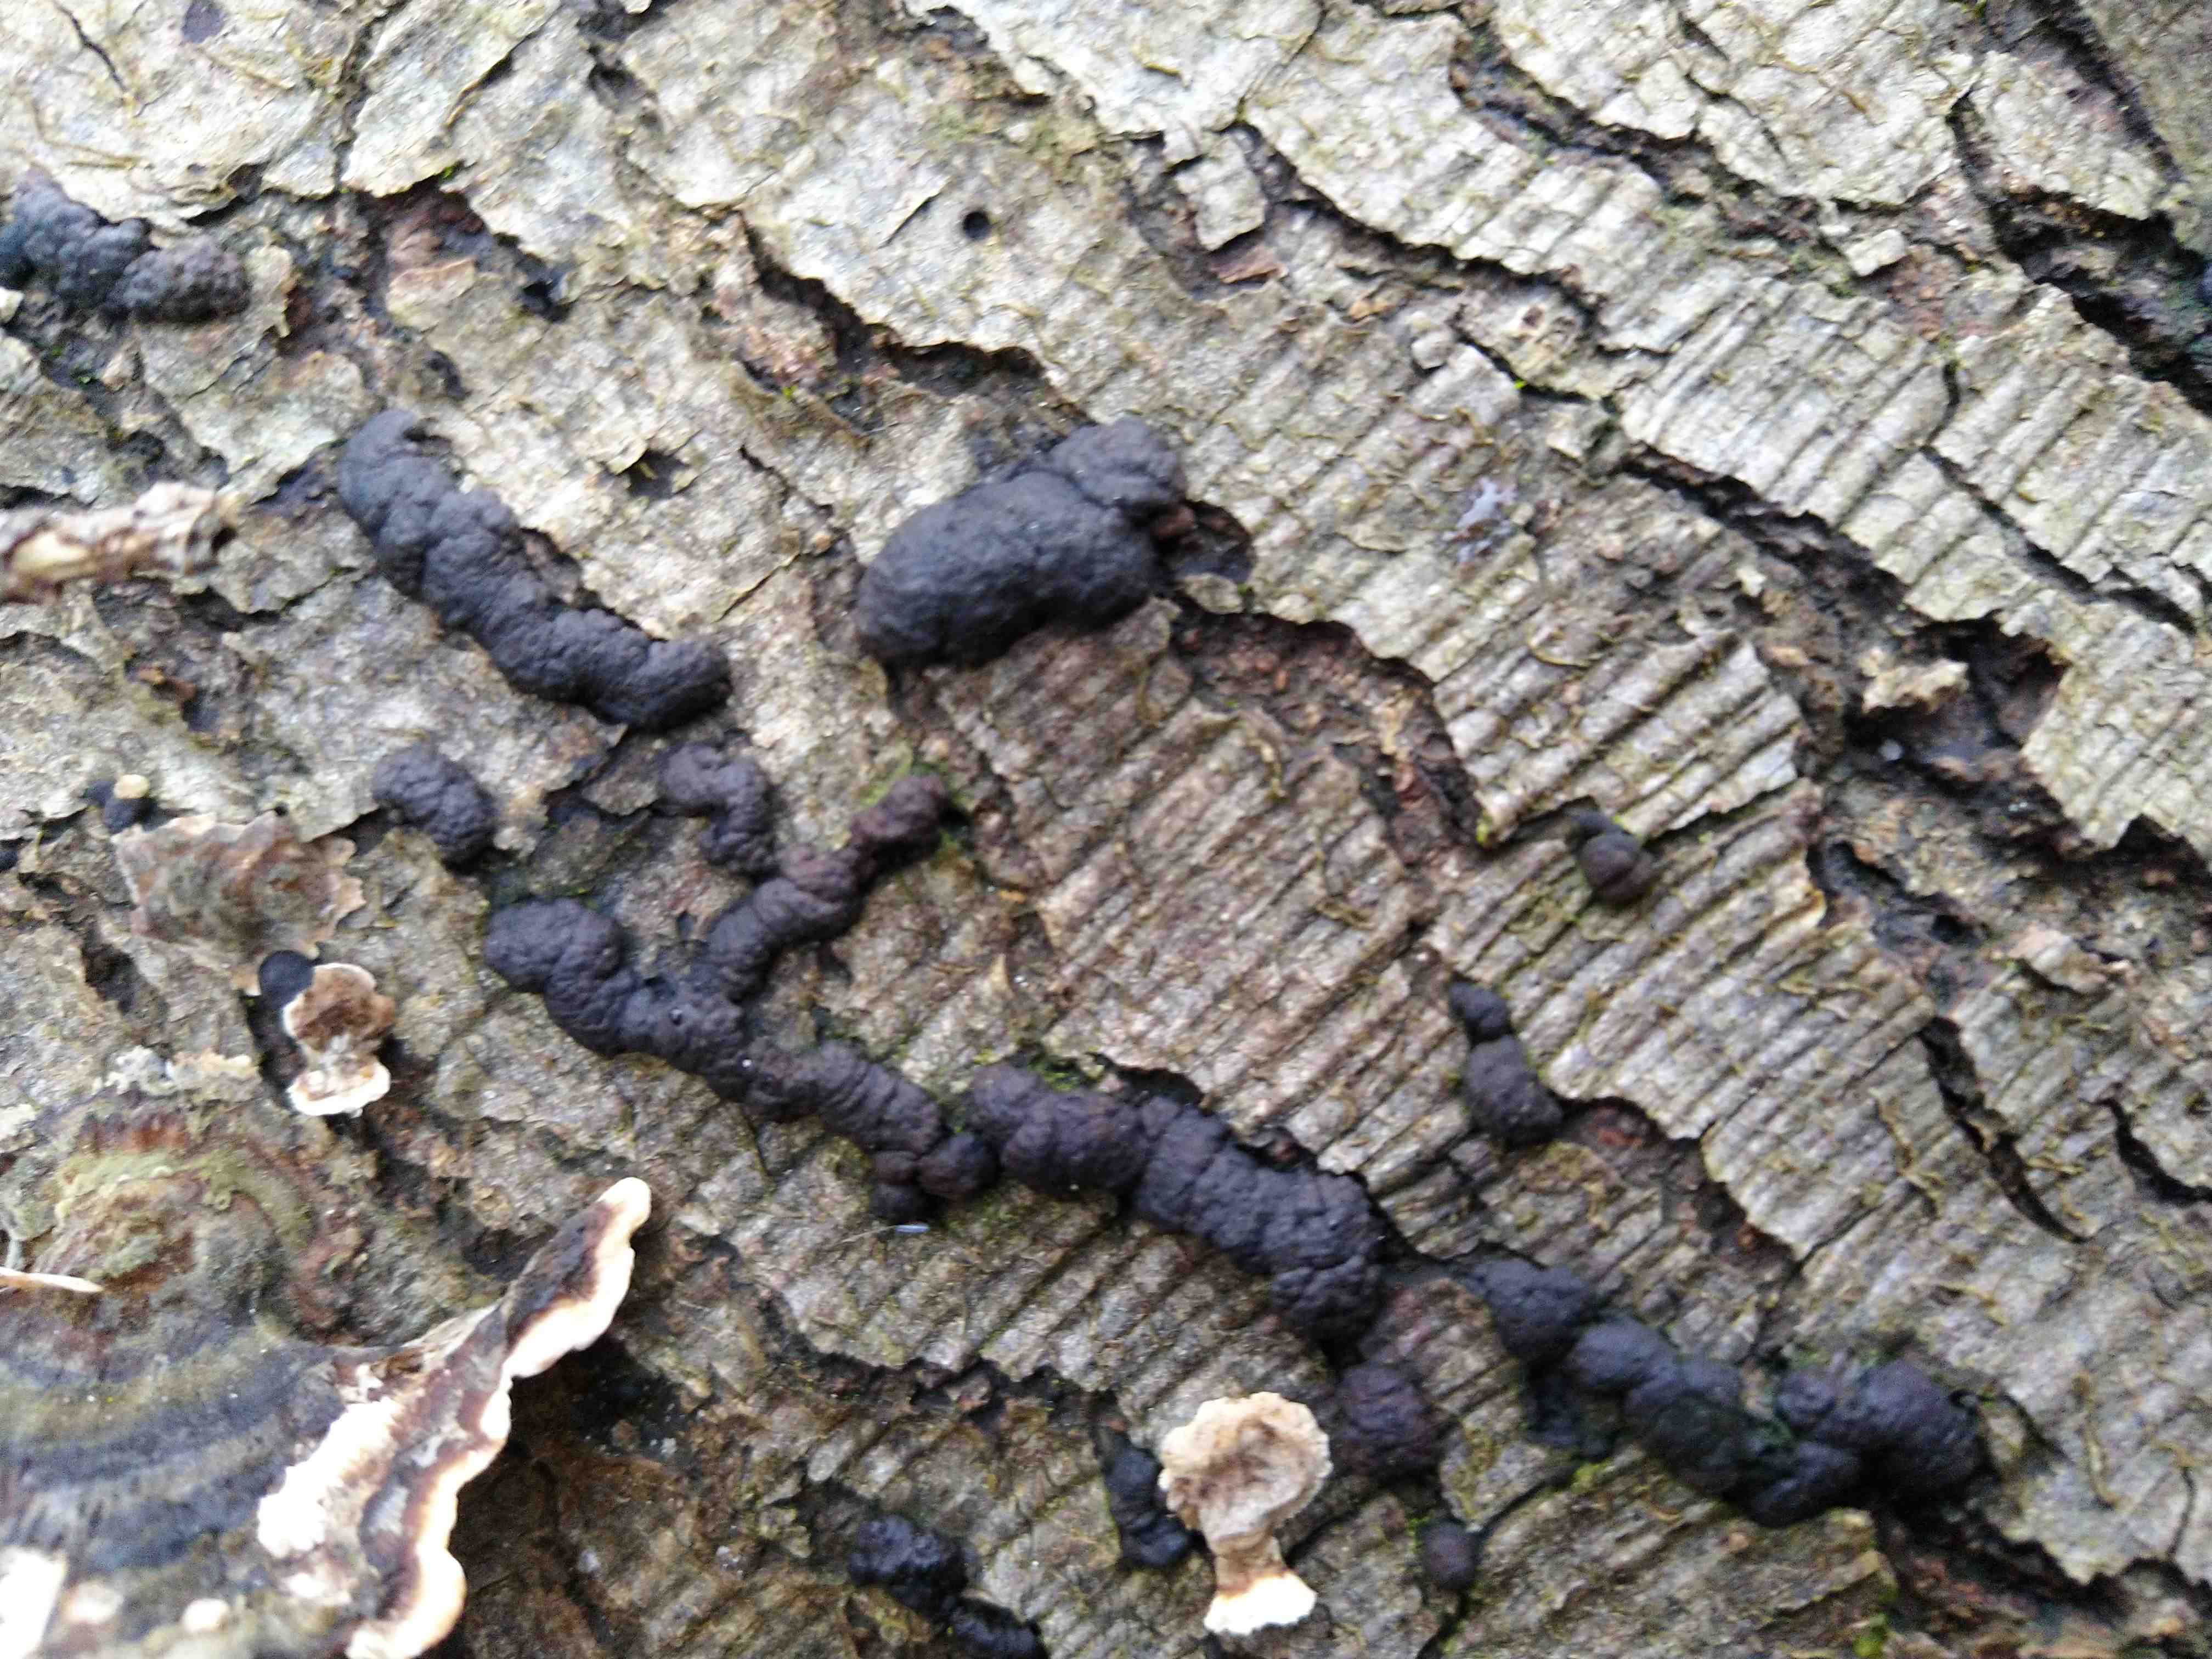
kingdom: Fungi
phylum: Ascomycota
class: Sordariomycetes
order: Xylariales
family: Hypoxylaceae
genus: Jackrogersella
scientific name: Jackrogersella minutella
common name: ege-kulbær
